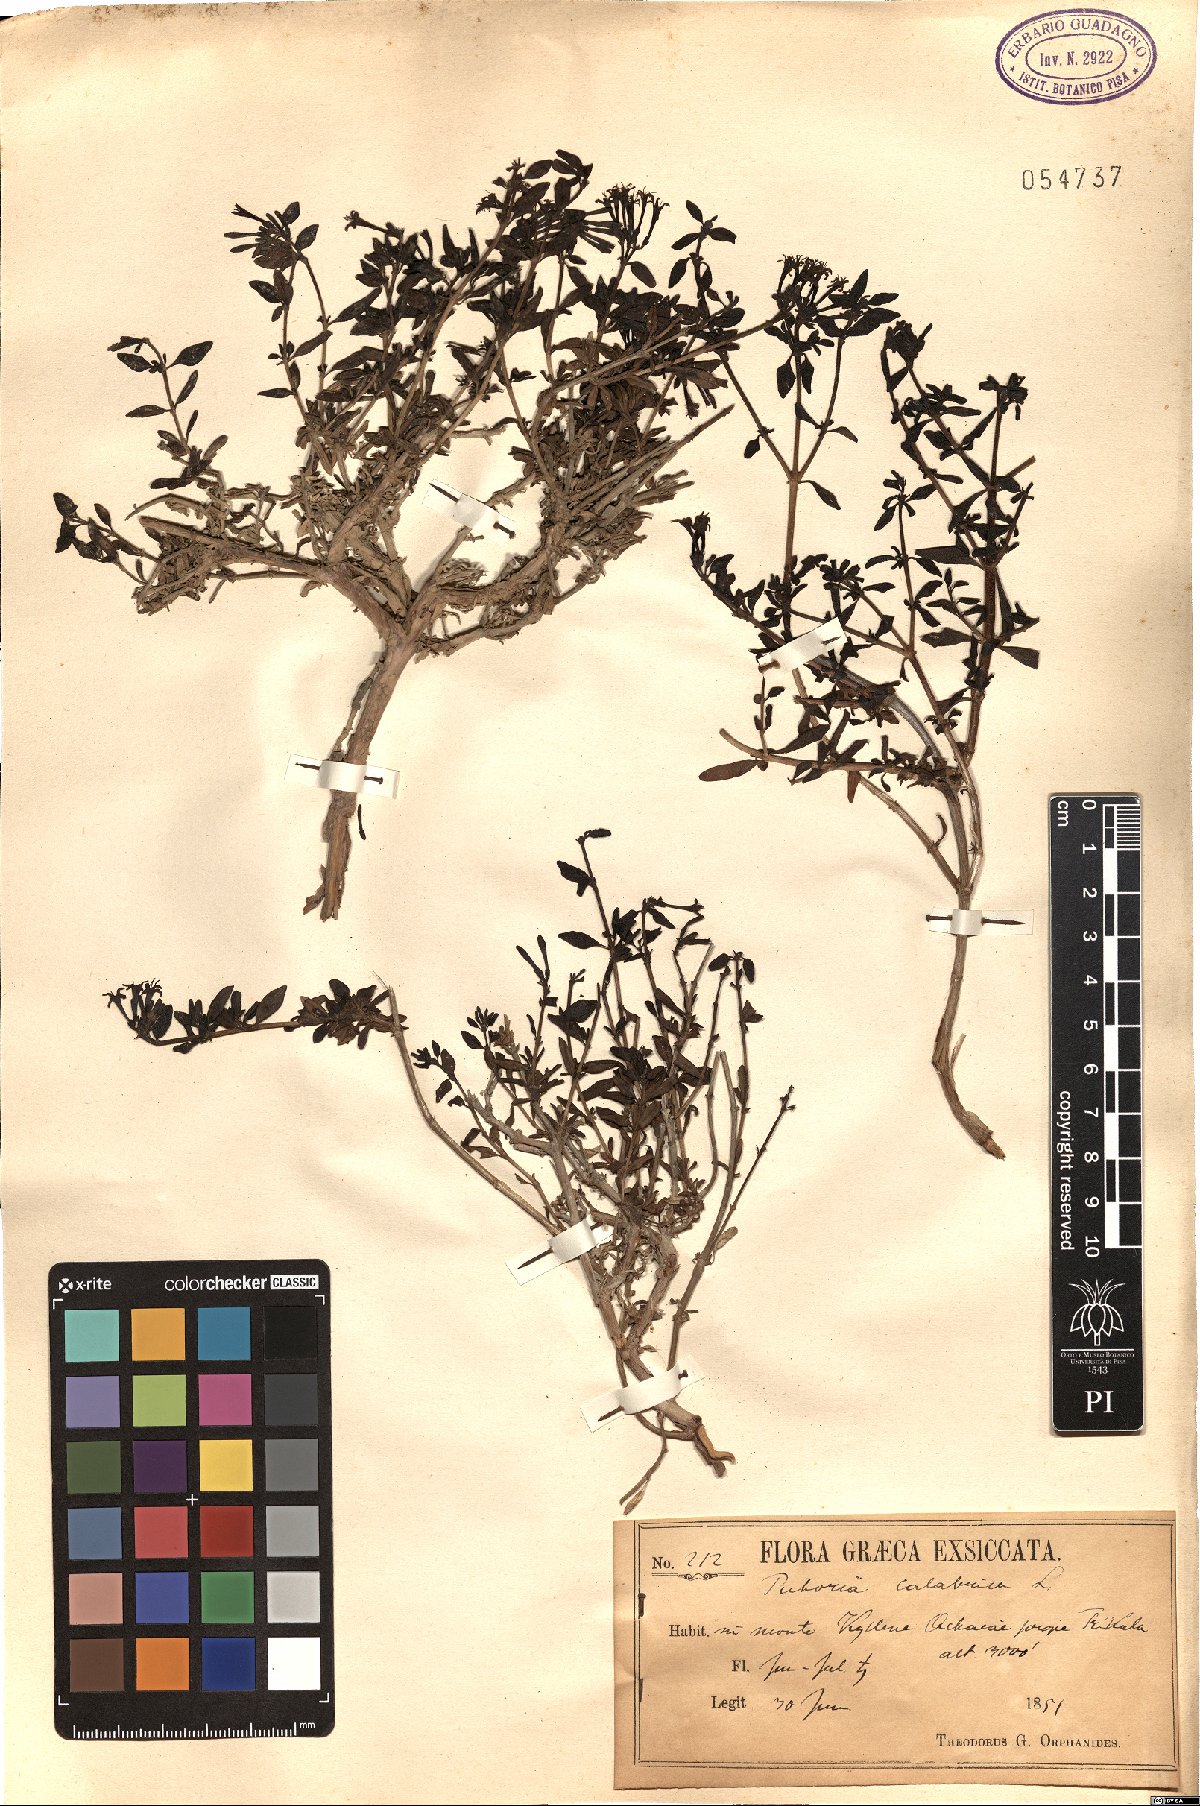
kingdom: Plantae
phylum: Tracheophyta
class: Magnoliopsida
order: Gentianales
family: Rubiaceae
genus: Plocama
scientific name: Plocama calabrica
